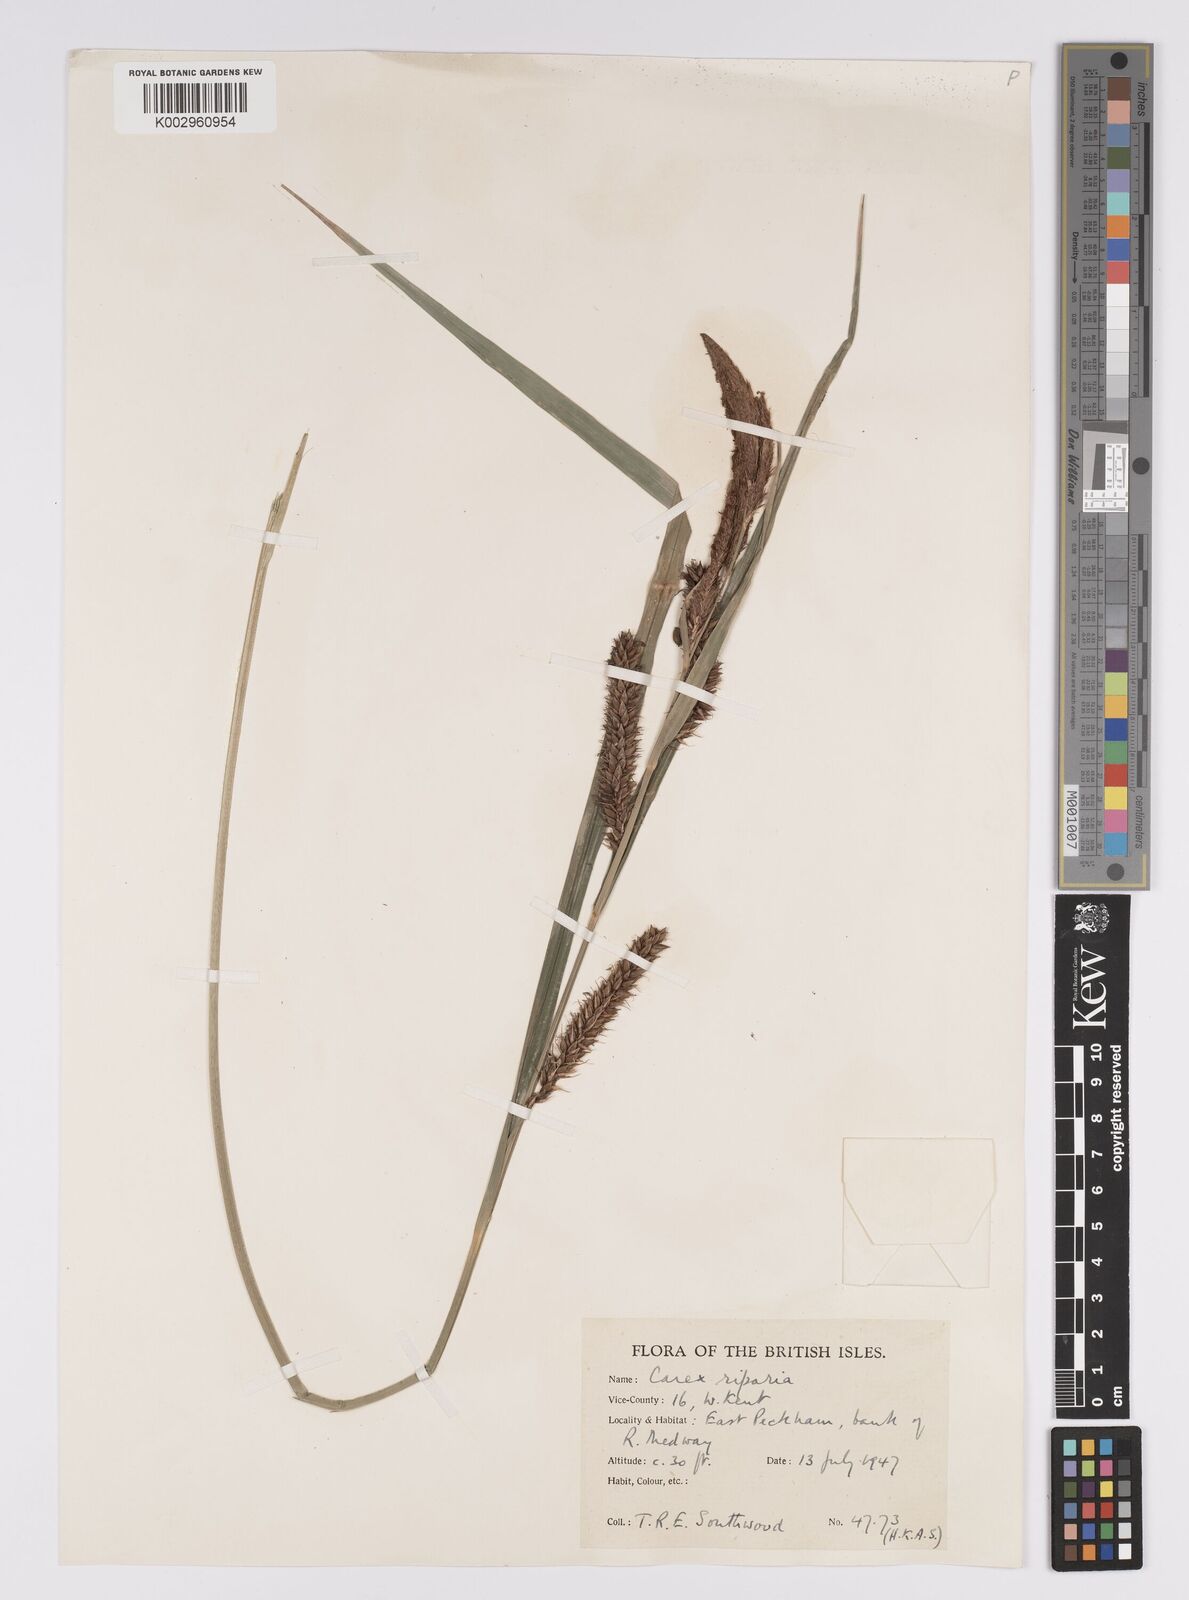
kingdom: Plantae
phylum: Tracheophyta
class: Liliopsida
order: Poales
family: Cyperaceae
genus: Carex
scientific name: Carex riparia
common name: Greater pond-sedge
